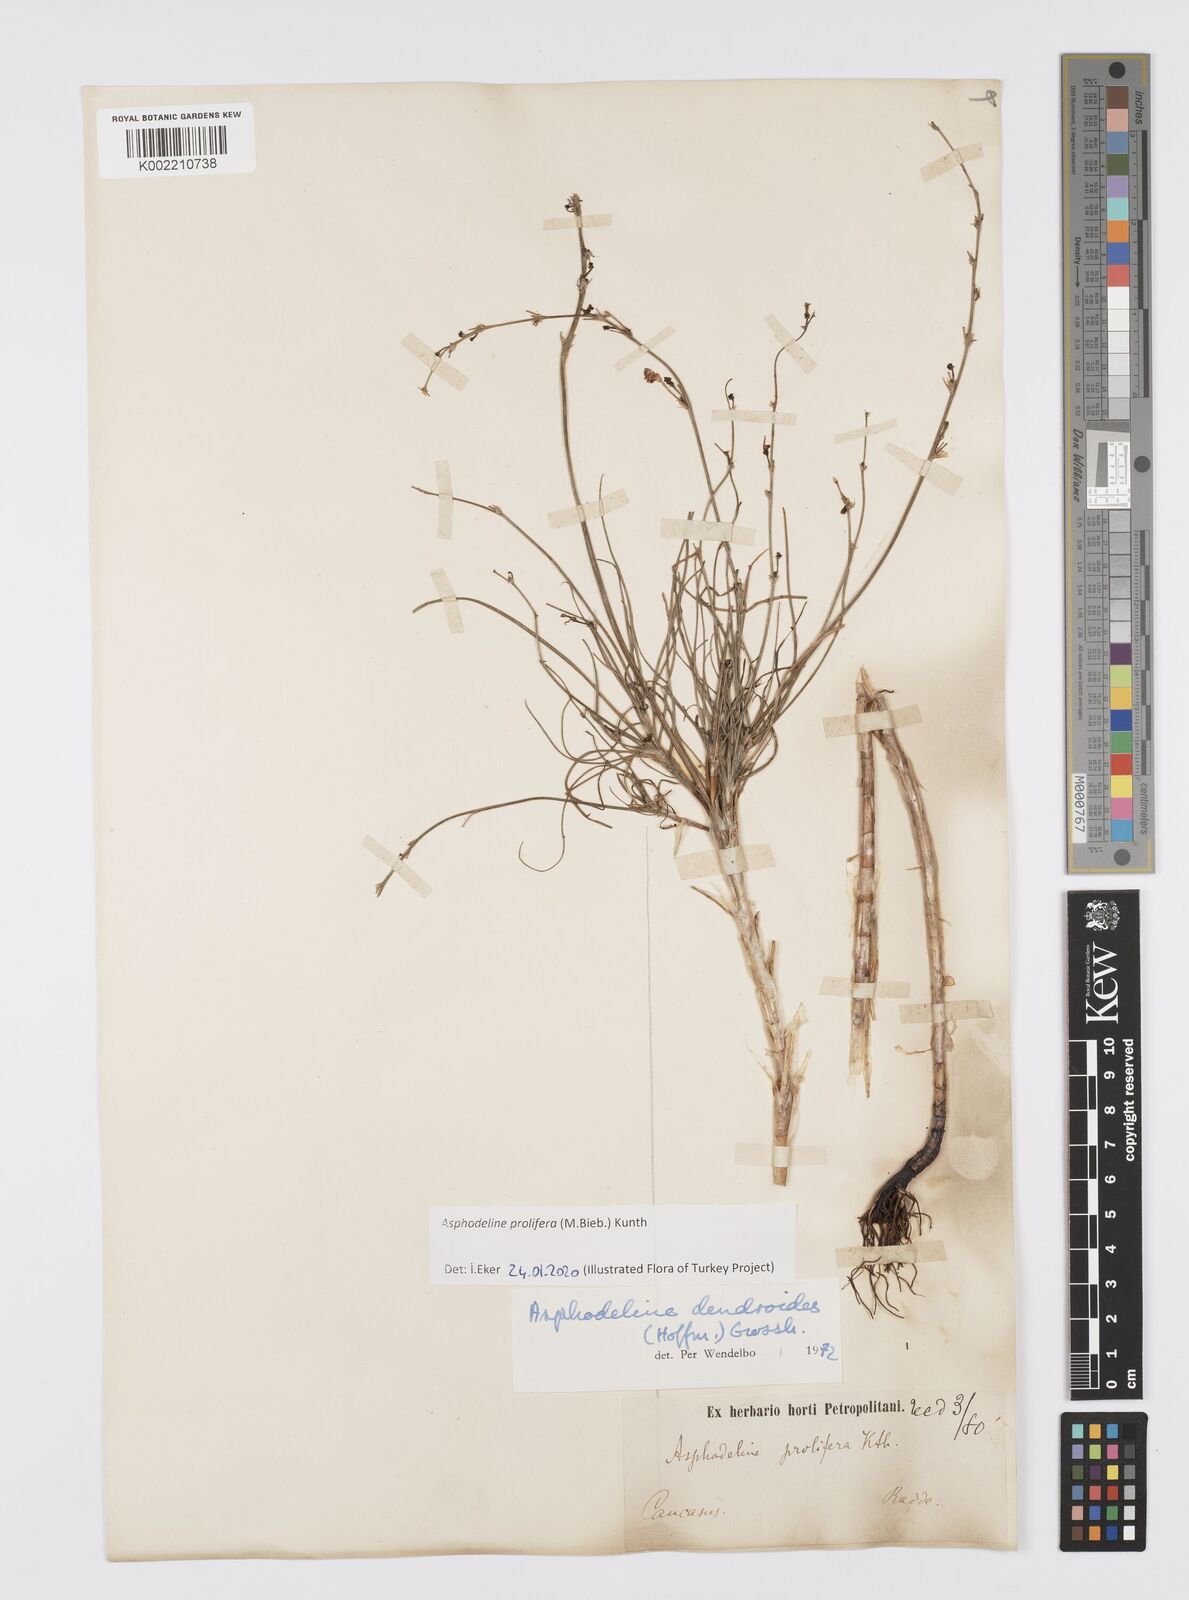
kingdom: Plantae
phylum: Tracheophyta
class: Liliopsida
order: Asparagales
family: Asphodelaceae
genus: Asphodeline
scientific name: Asphodeline prolifera
